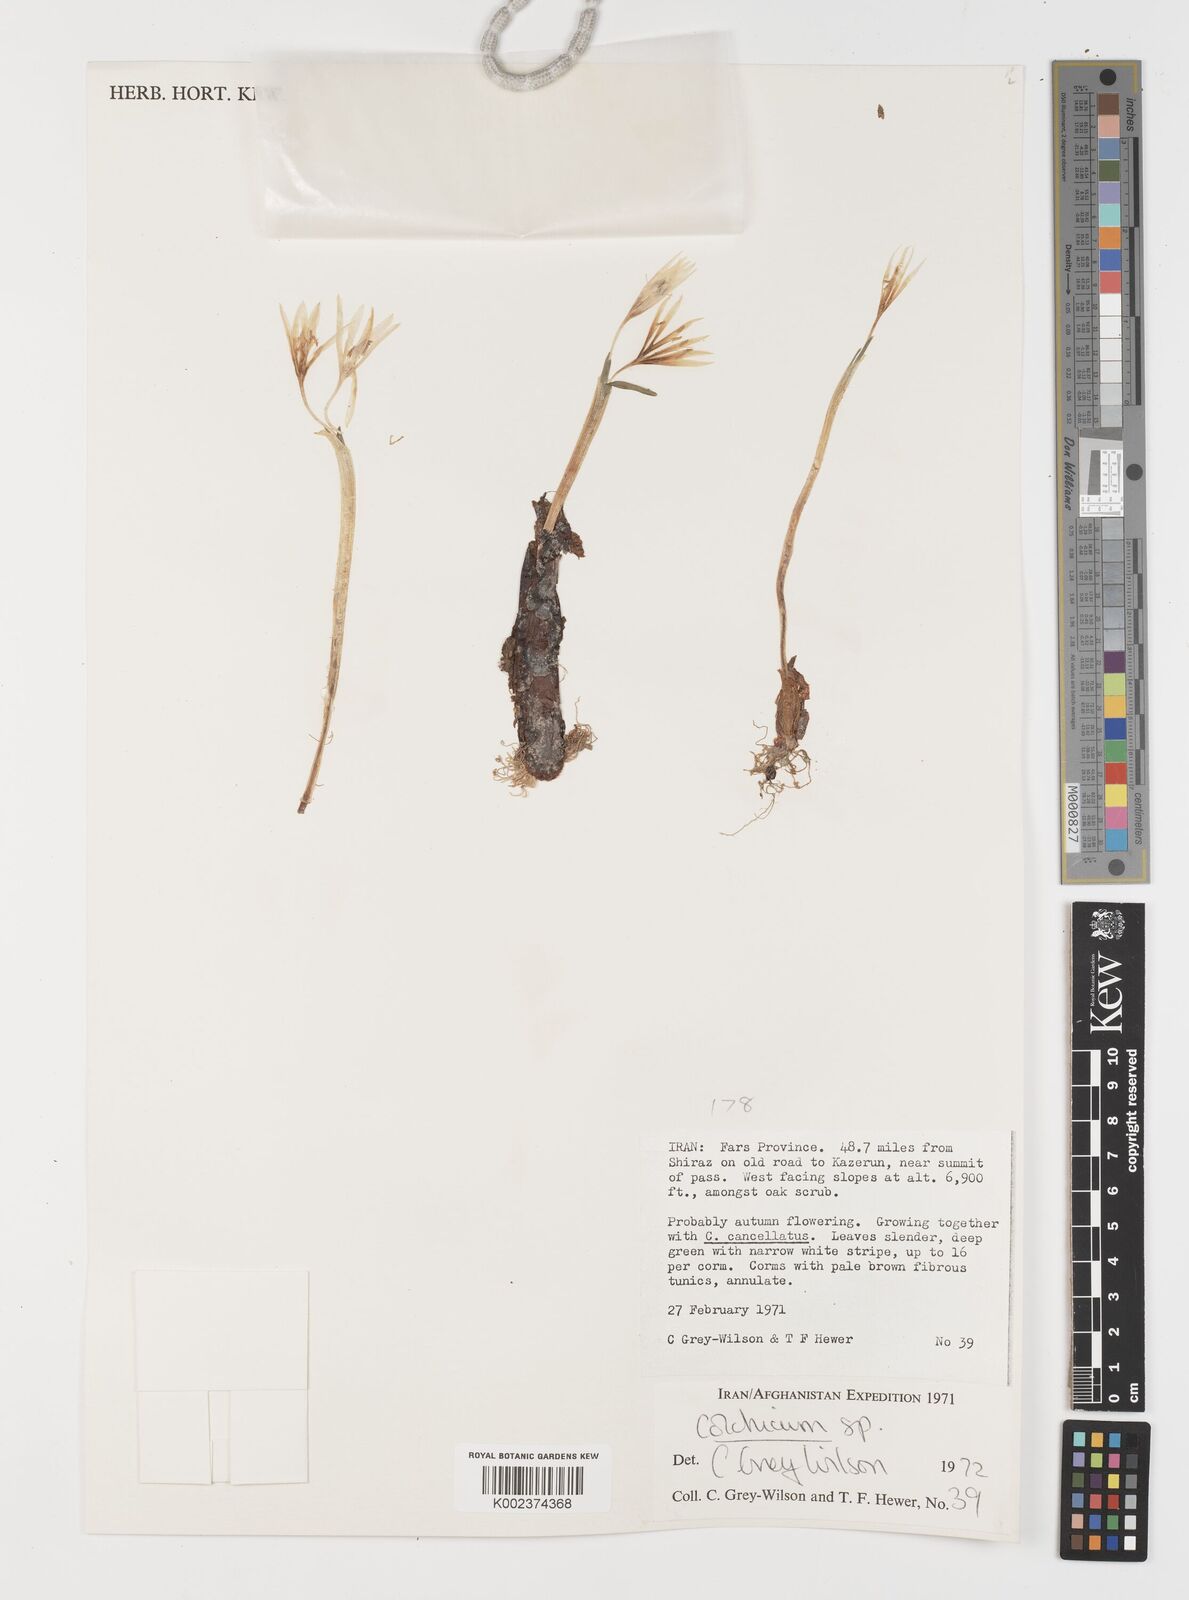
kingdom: Plantae
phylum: Tracheophyta
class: Liliopsida
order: Liliales
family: Colchicaceae
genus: Colchicum
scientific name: Colchicum
